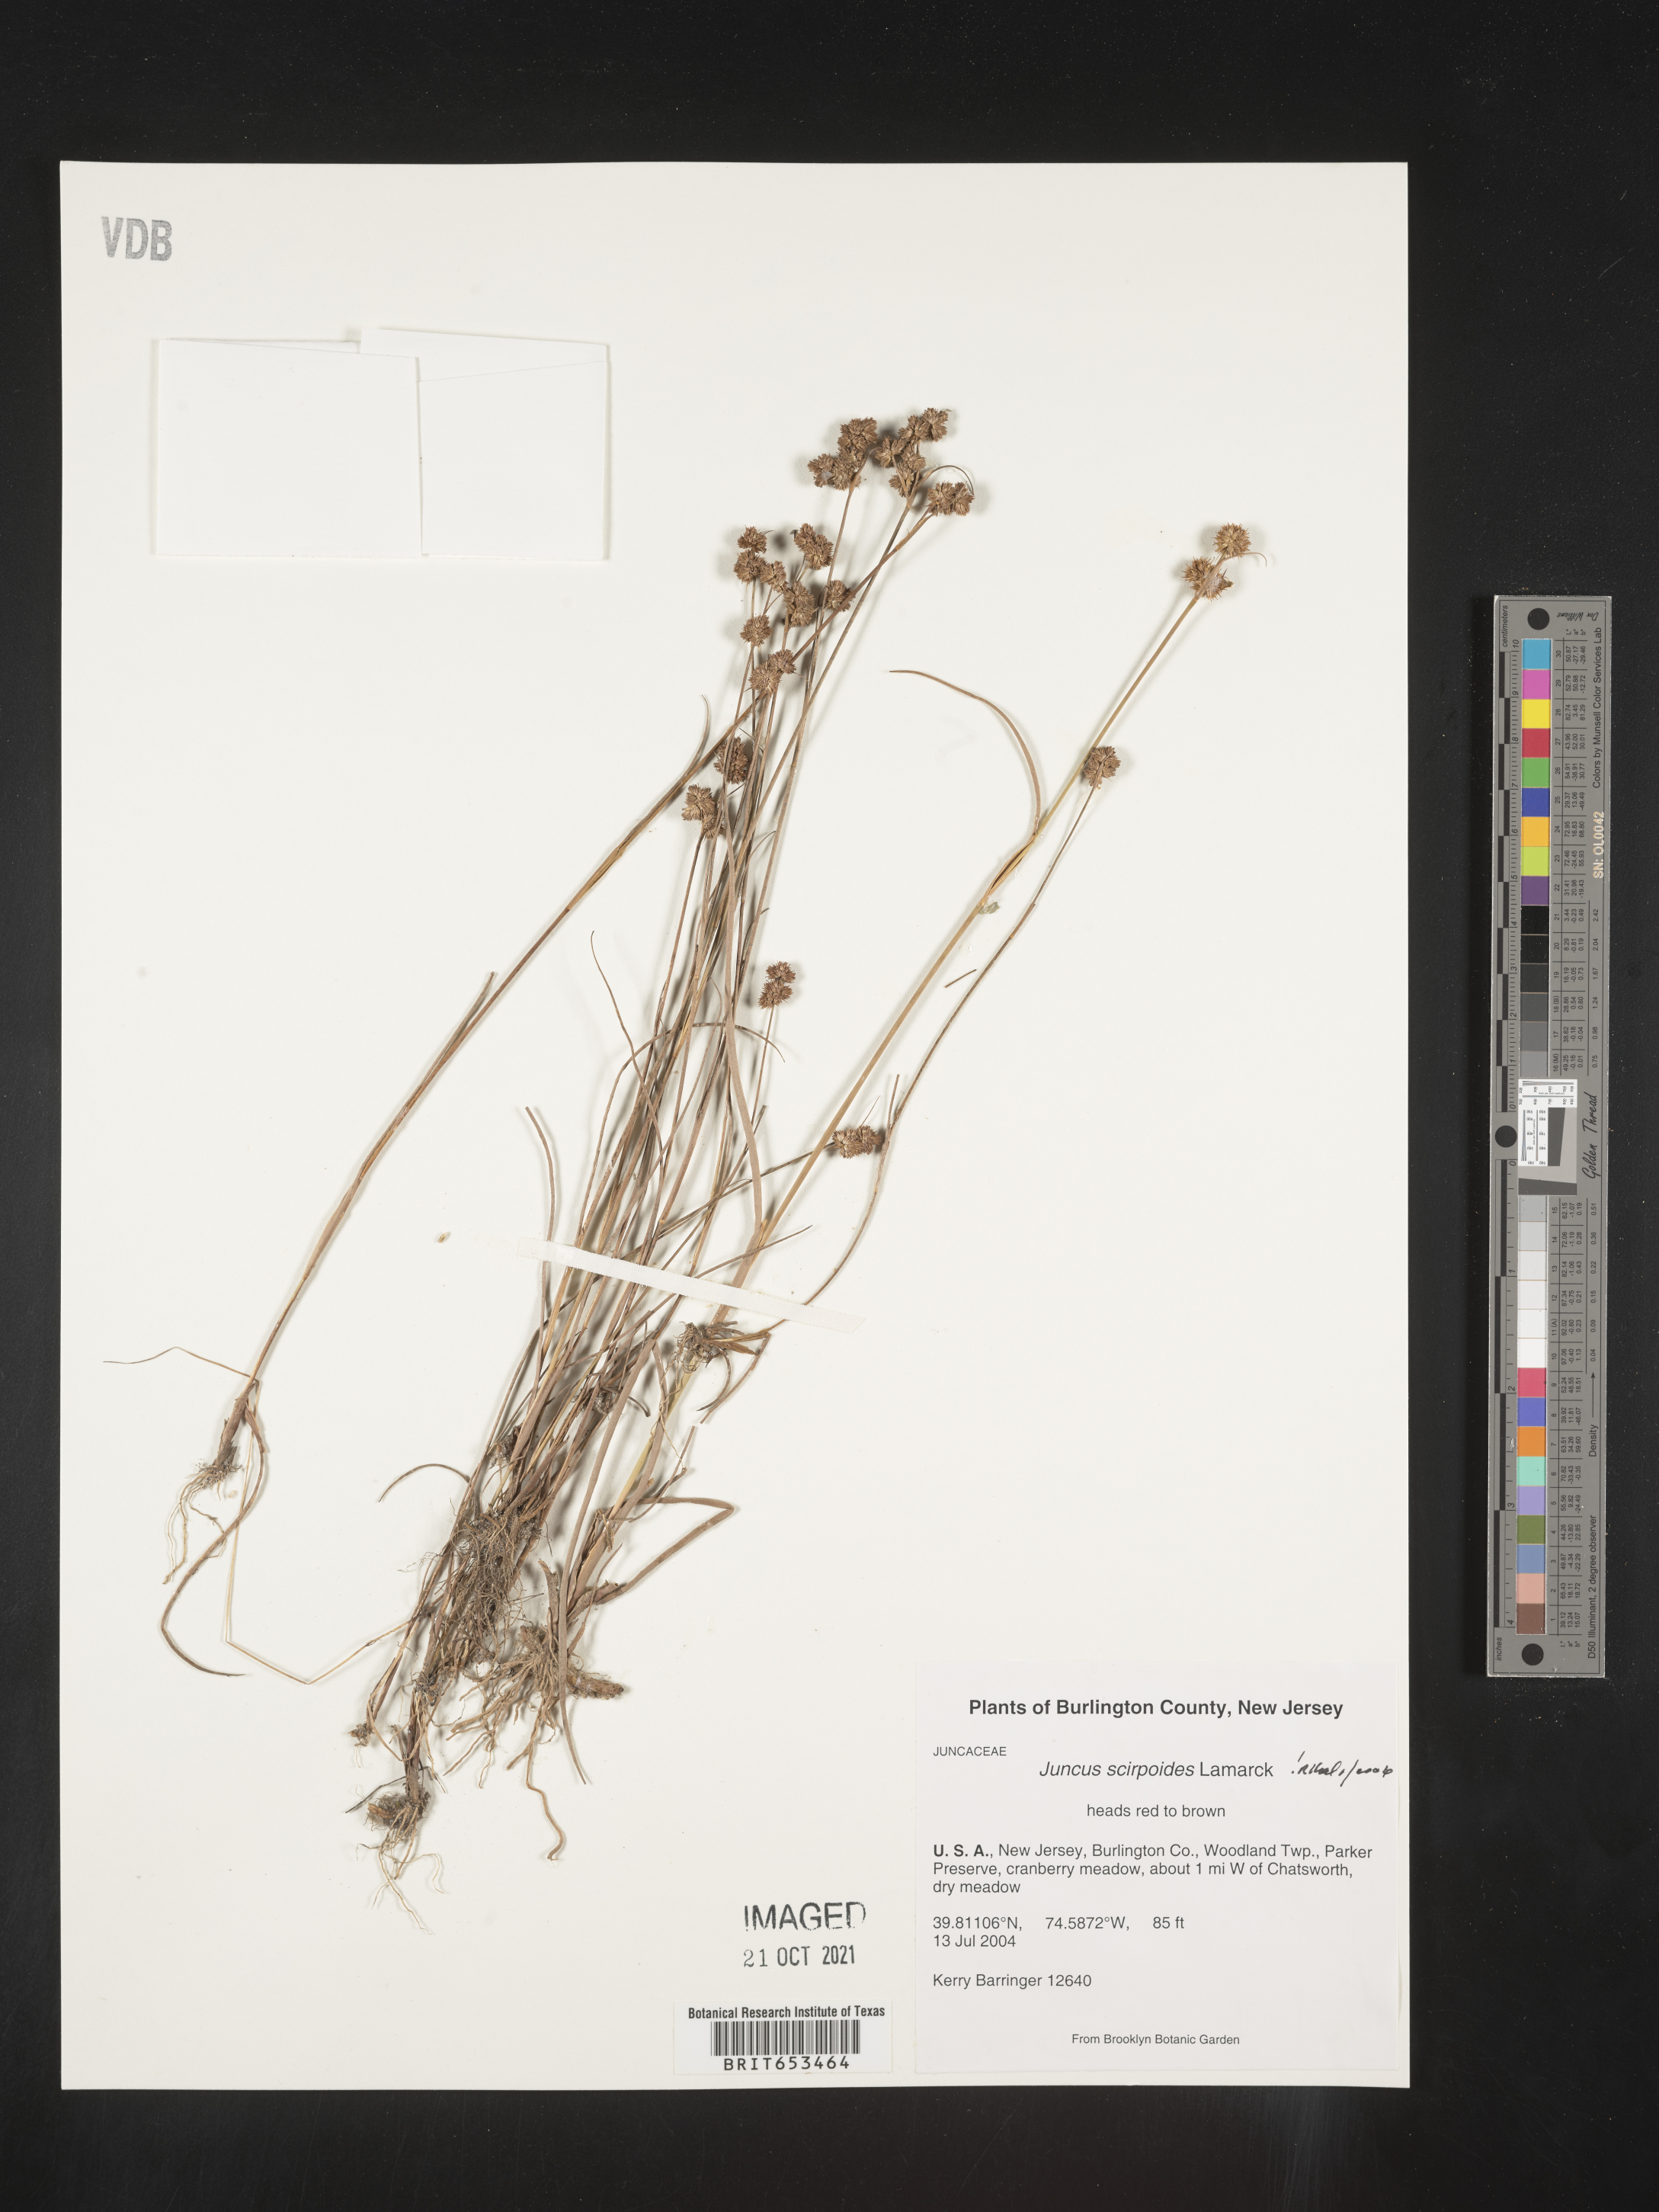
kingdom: Plantae
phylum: Tracheophyta
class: Liliopsida
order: Poales
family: Juncaceae
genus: Juncus
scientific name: Juncus scirpoides
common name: Needlepod rush
